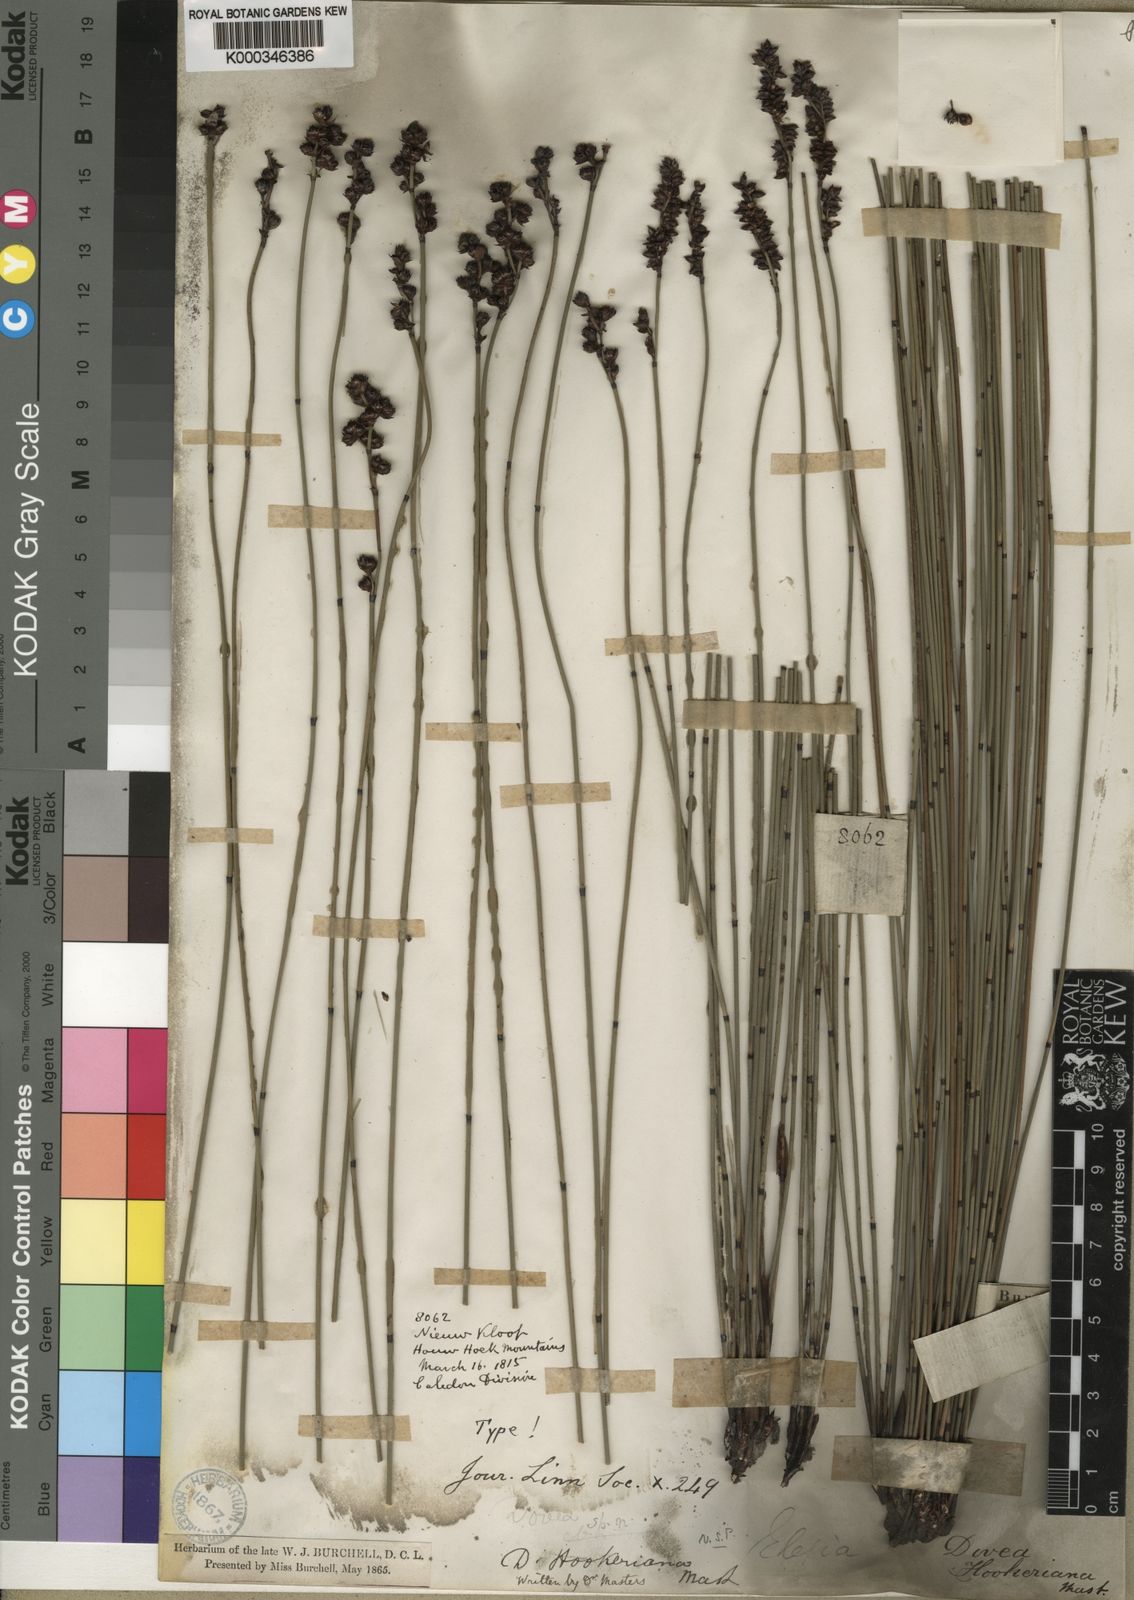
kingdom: Plantae
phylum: Tracheophyta
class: Liliopsida
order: Poales
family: Restionaceae
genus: Elegia
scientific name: Elegia hookeriana
